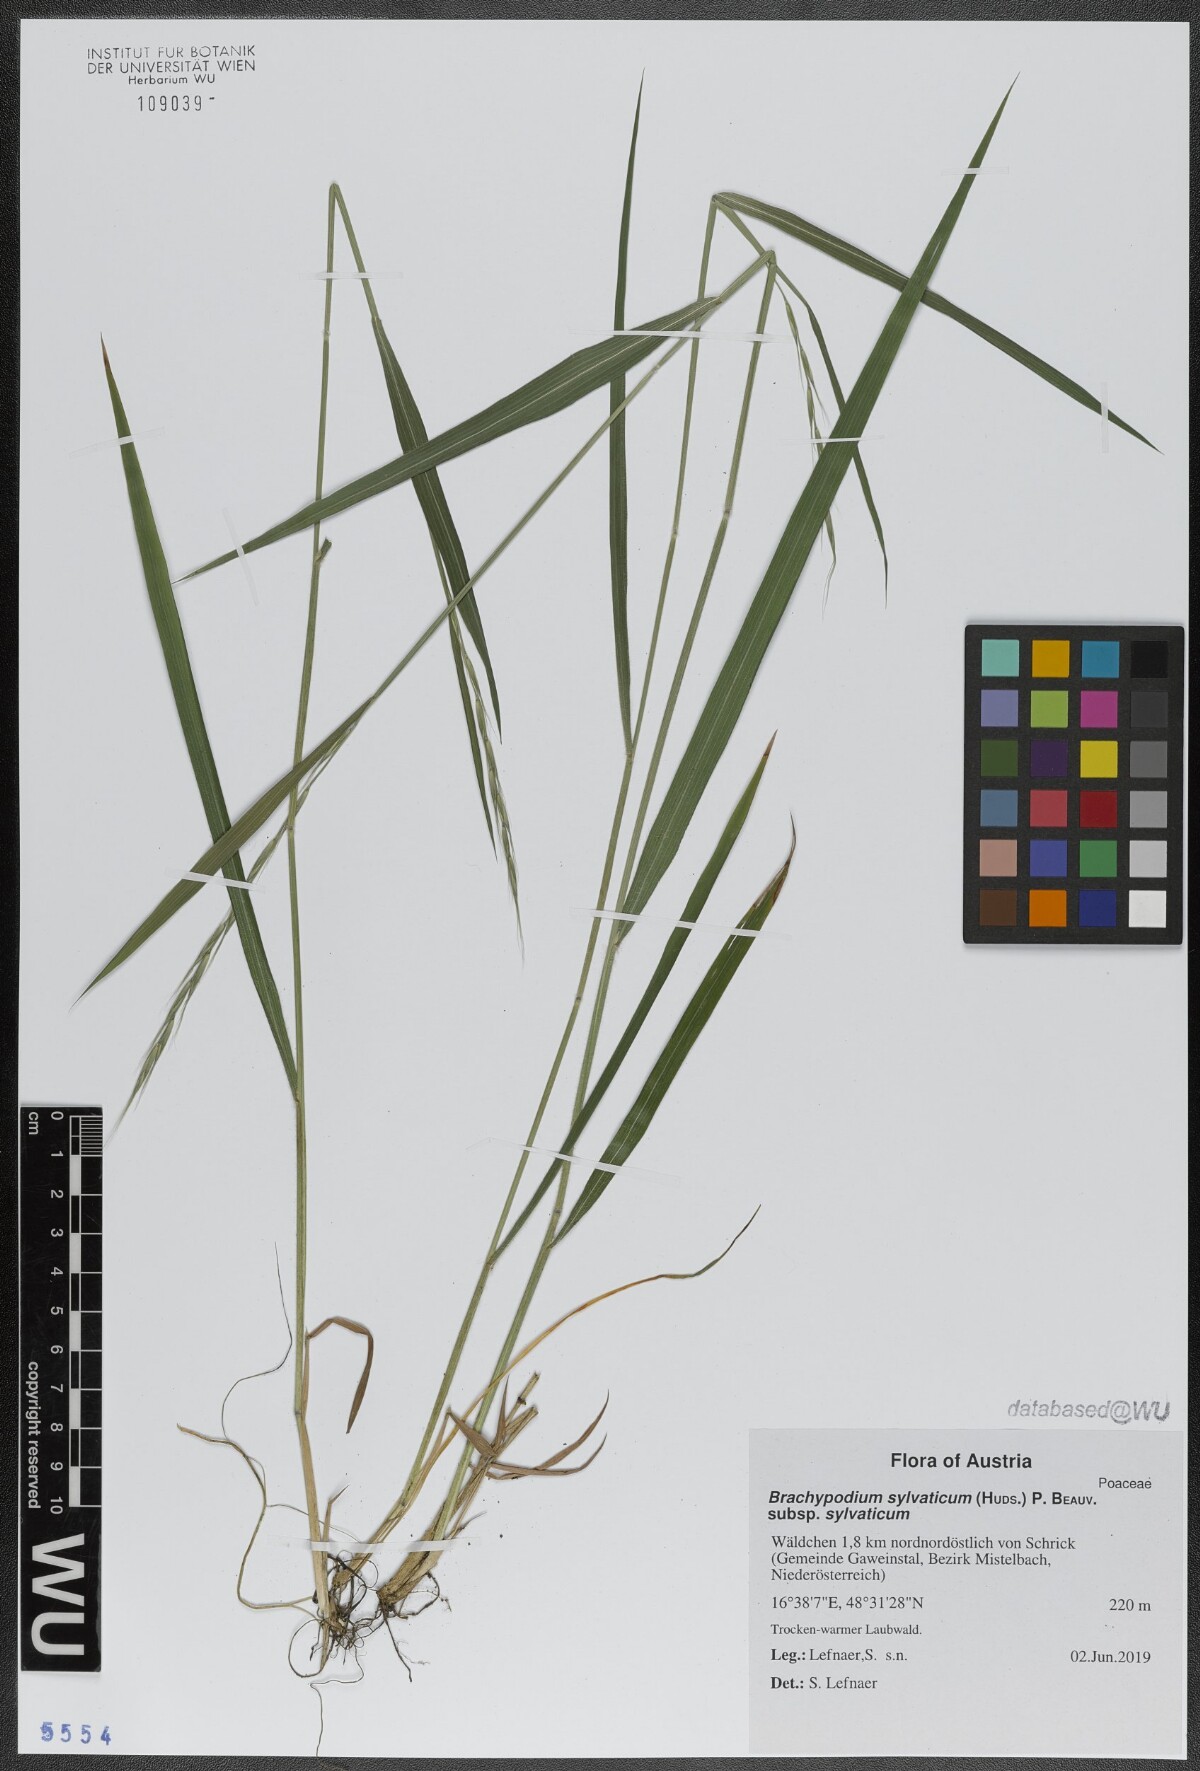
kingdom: Plantae
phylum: Tracheophyta
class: Liliopsida
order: Poales
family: Poaceae
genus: Brachypodium
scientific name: Brachypodium sylvaticum
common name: False-brome
